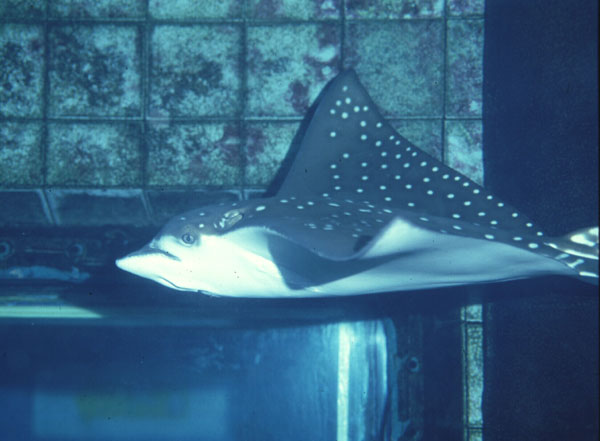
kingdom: Animalia
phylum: Chordata
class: Elasmobranchii
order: Myliobatiformes
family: Myliobatidae
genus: Aetobatus
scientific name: Aetobatus narinari
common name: Spotted eagle ray
